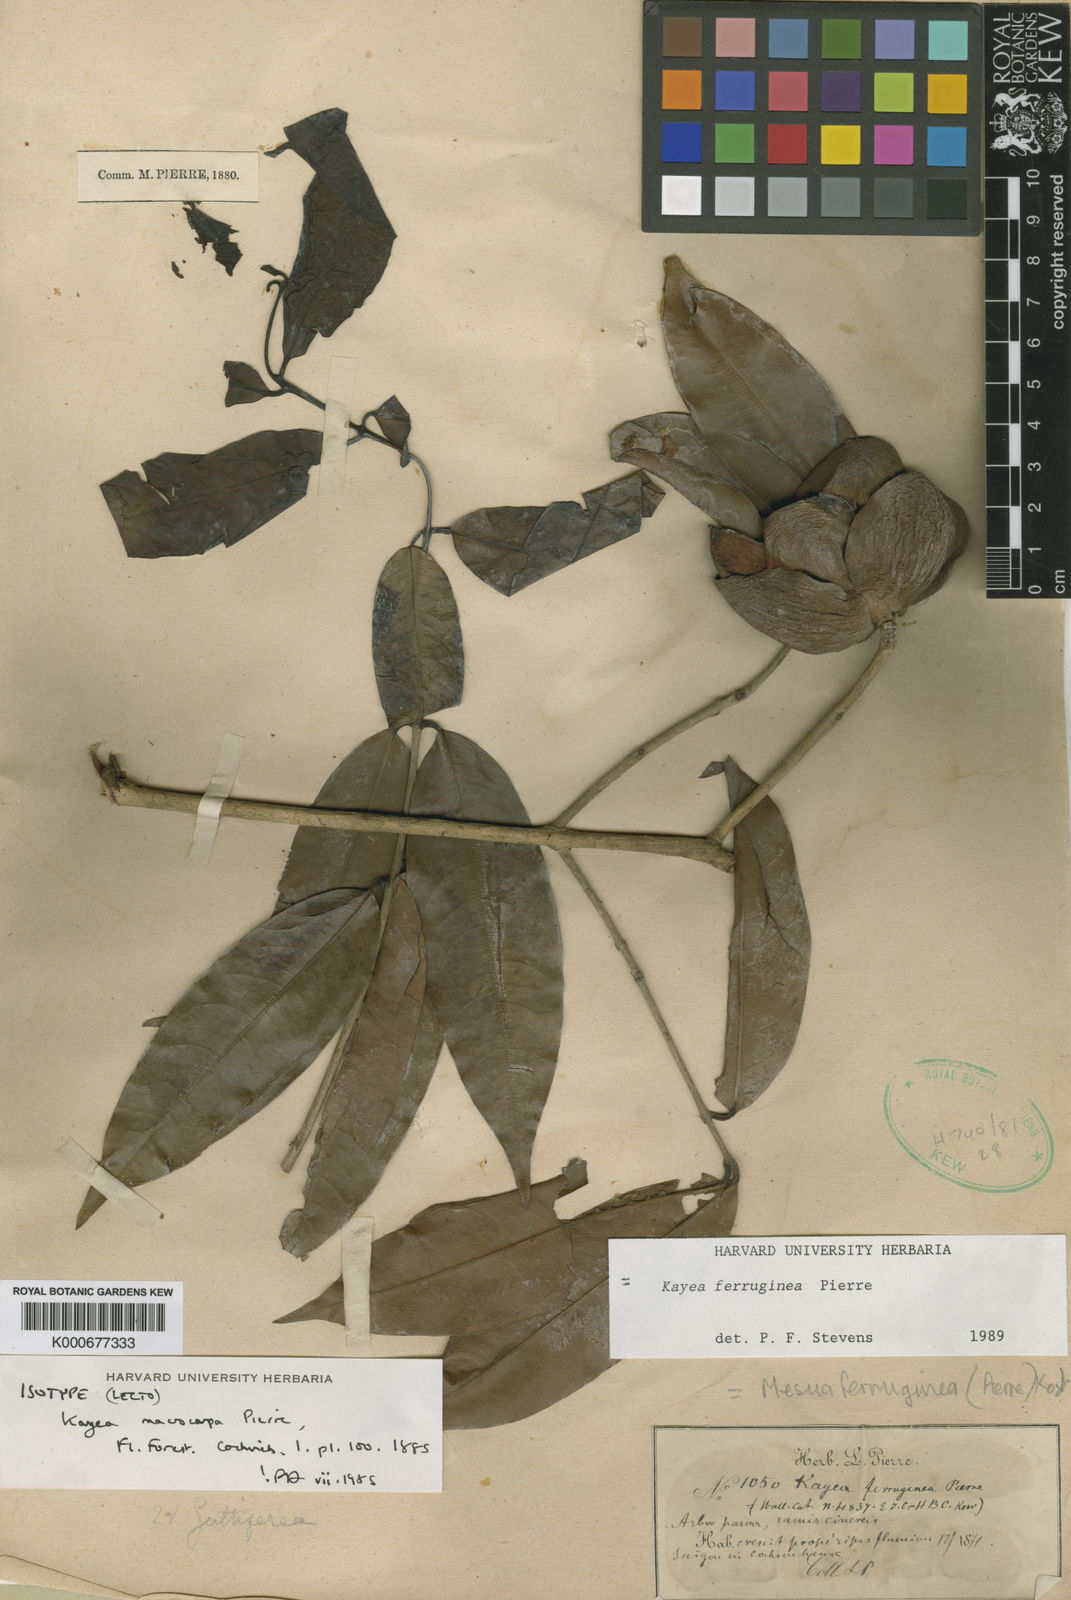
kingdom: Plantae
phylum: Tracheophyta
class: Magnoliopsida
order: Malpighiales
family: Calophyllaceae
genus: Kayea
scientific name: Kayea manii
